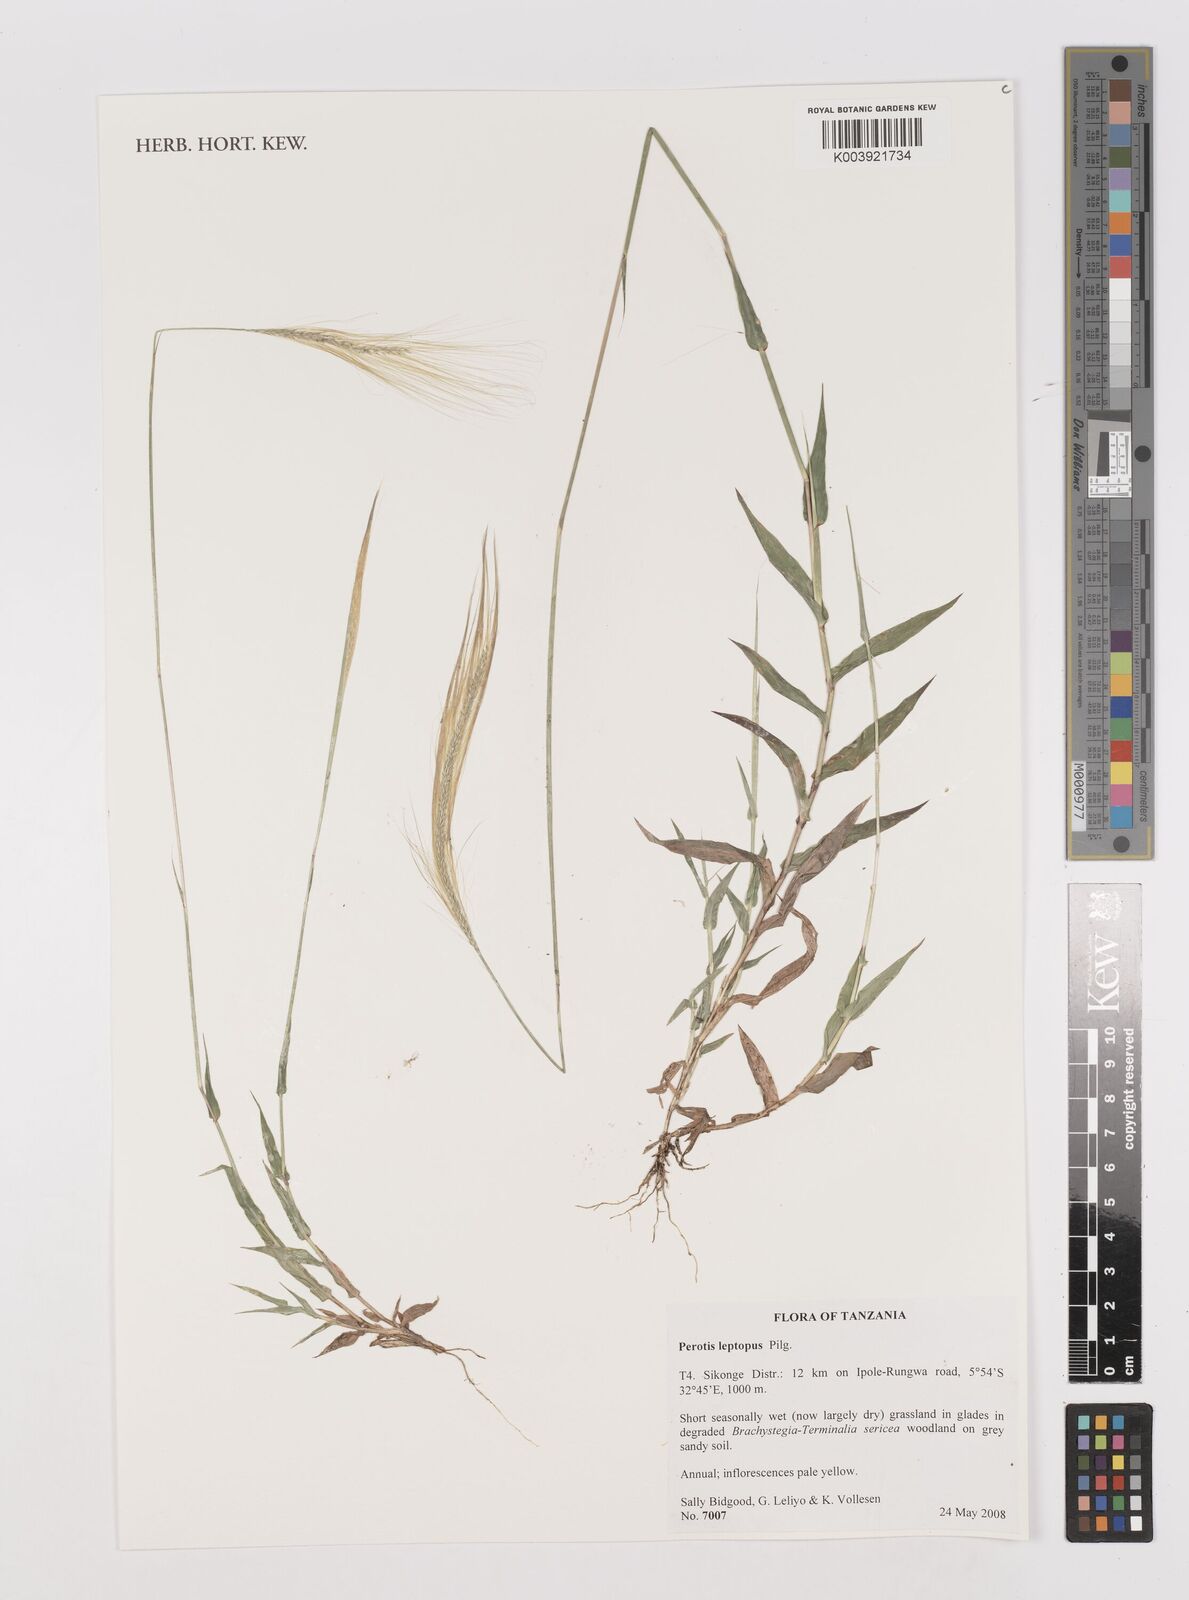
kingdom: Plantae
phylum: Tracheophyta
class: Liliopsida
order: Poales
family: Poaceae
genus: Perotis
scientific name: Perotis leptopus
